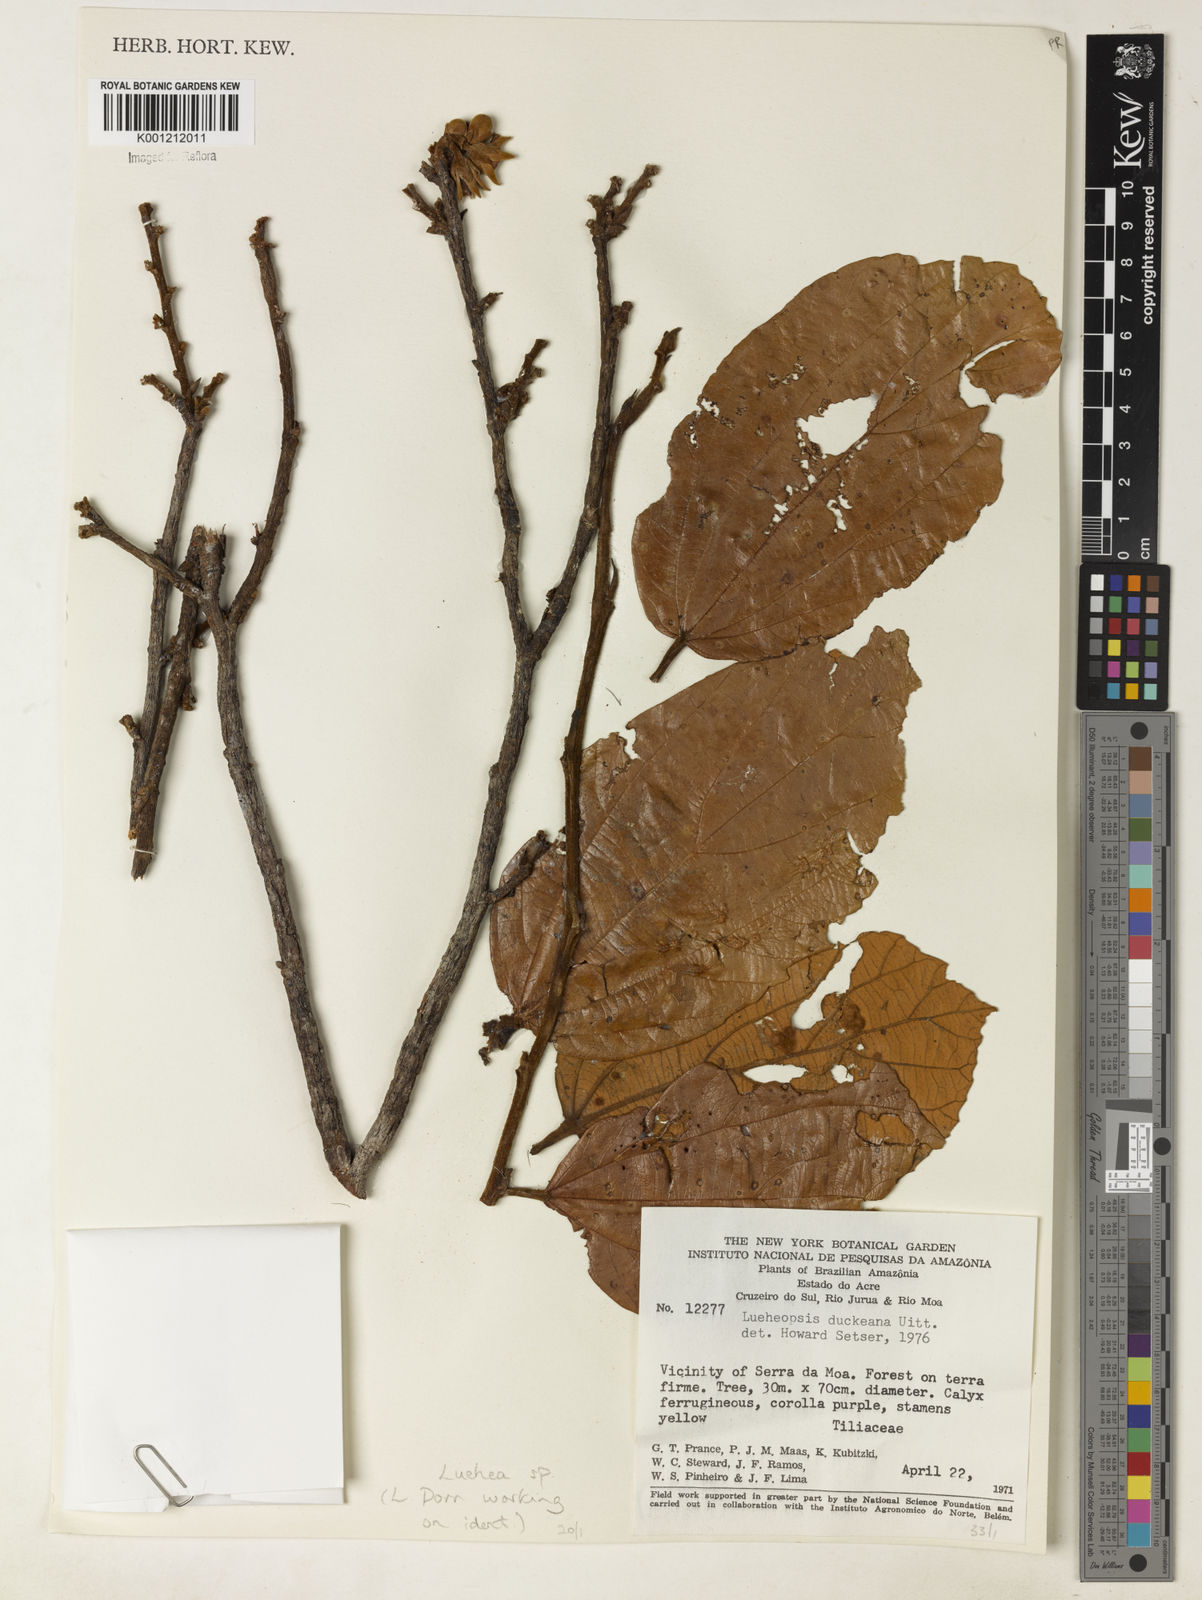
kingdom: Plantae
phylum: Tracheophyta
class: Magnoliopsida
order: Malvales
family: Malvaceae
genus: Luehea
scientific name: Luehea
